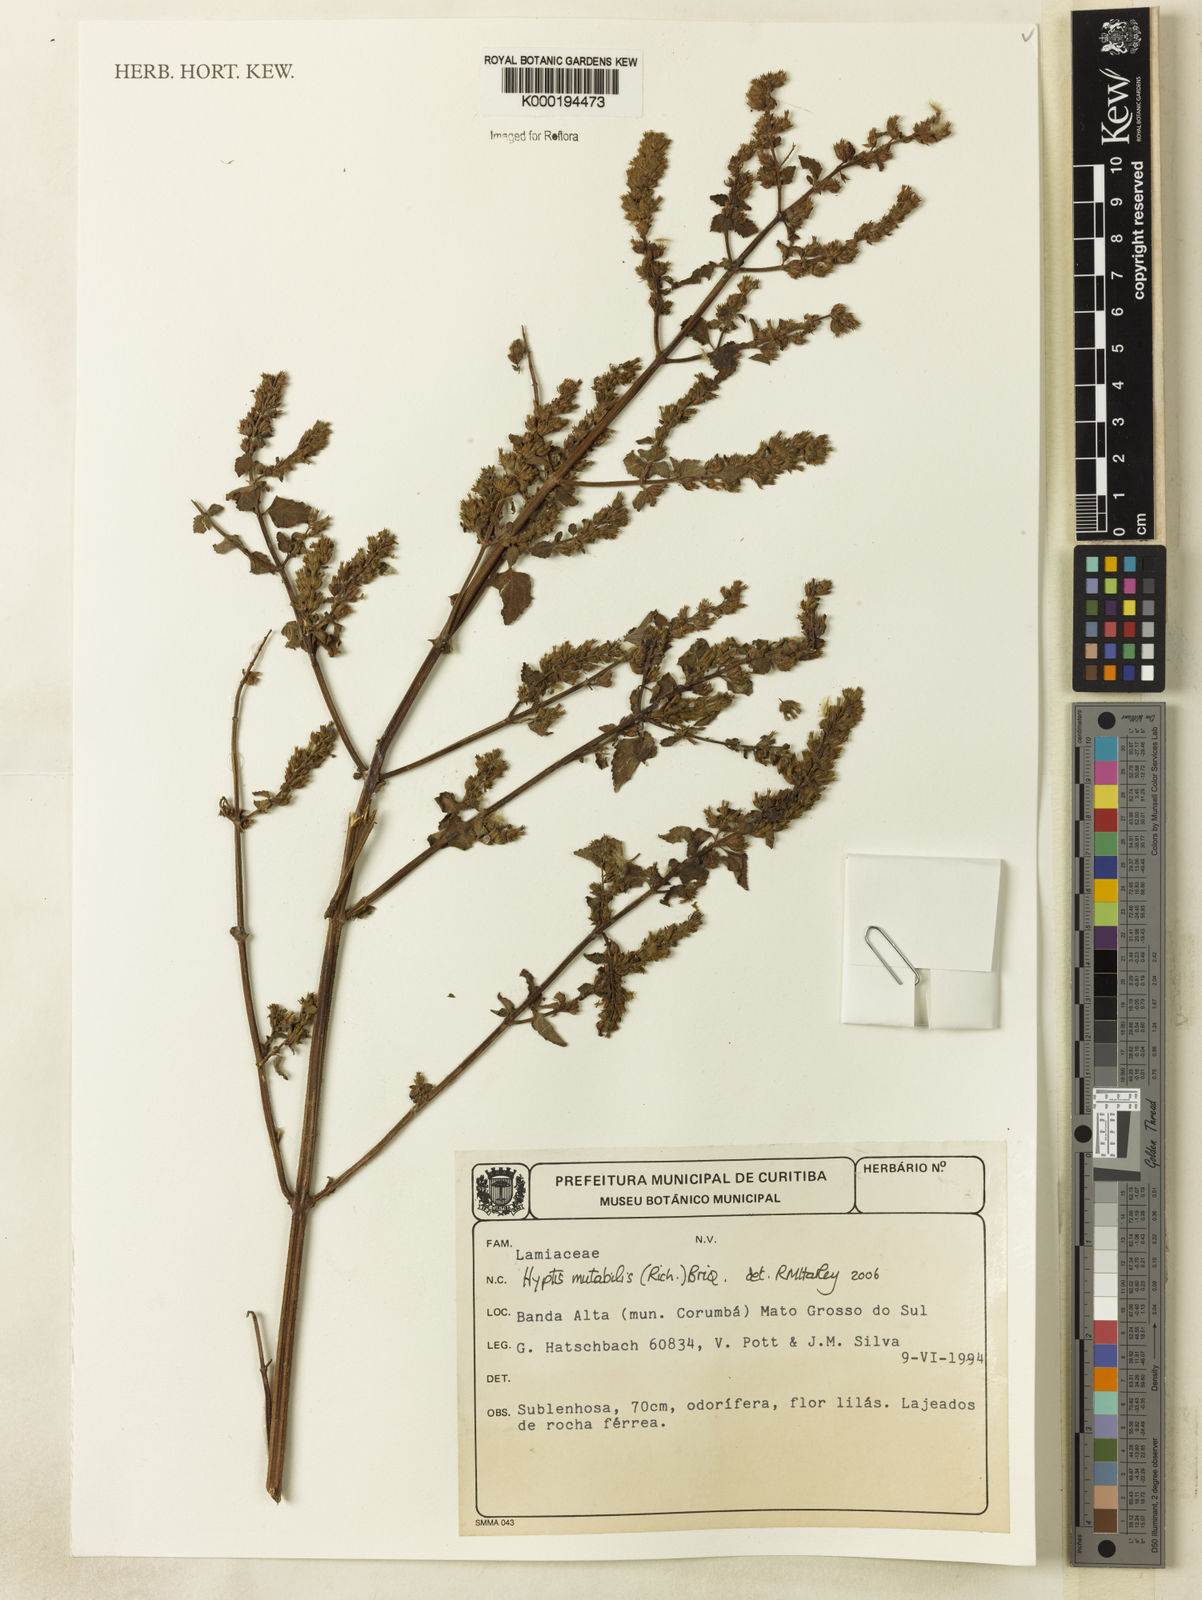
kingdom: Plantae
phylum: Tracheophyta
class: Magnoliopsida
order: Lamiales
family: Lamiaceae
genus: Cantinoa
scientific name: Cantinoa mutabilis
